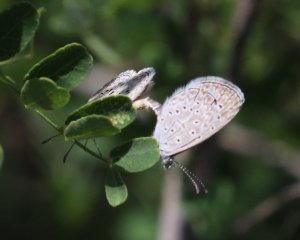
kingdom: Animalia
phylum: Arthropoda
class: Insecta
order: Lepidoptera
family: Lycaenidae
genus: Lycaena
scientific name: Lycaena cyna
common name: Cyna Blue
